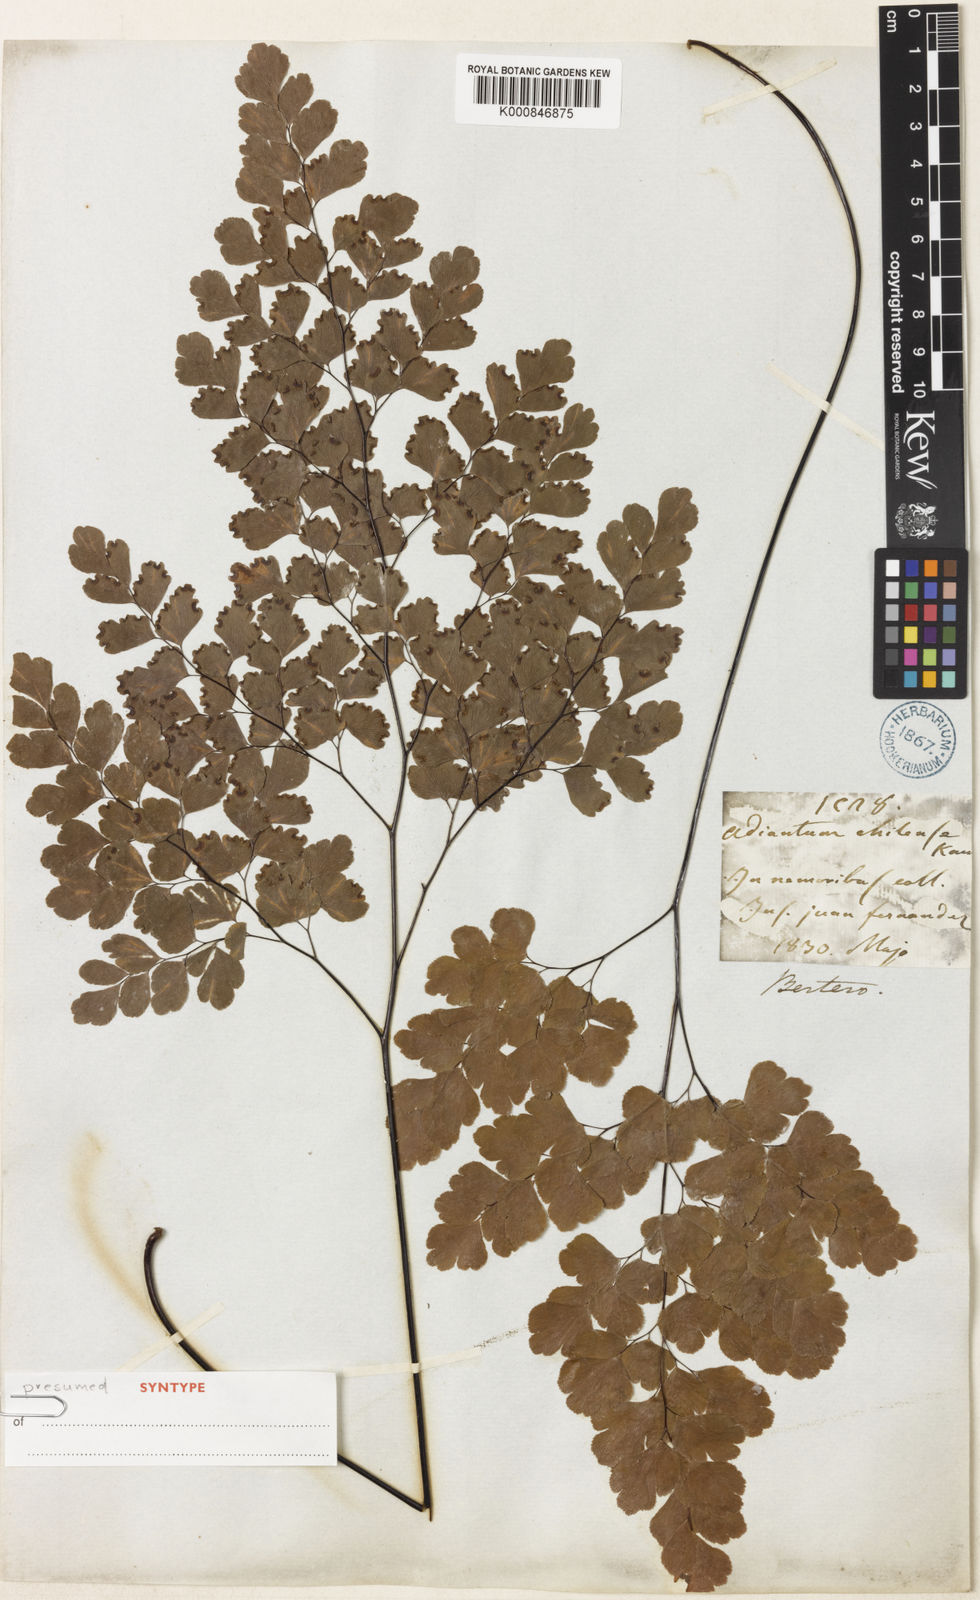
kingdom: Plantae
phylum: Tracheophyta
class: Polypodiopsida
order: Polypodiales
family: Pteridaceae
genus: Adiantum
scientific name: Adiantum chilense
